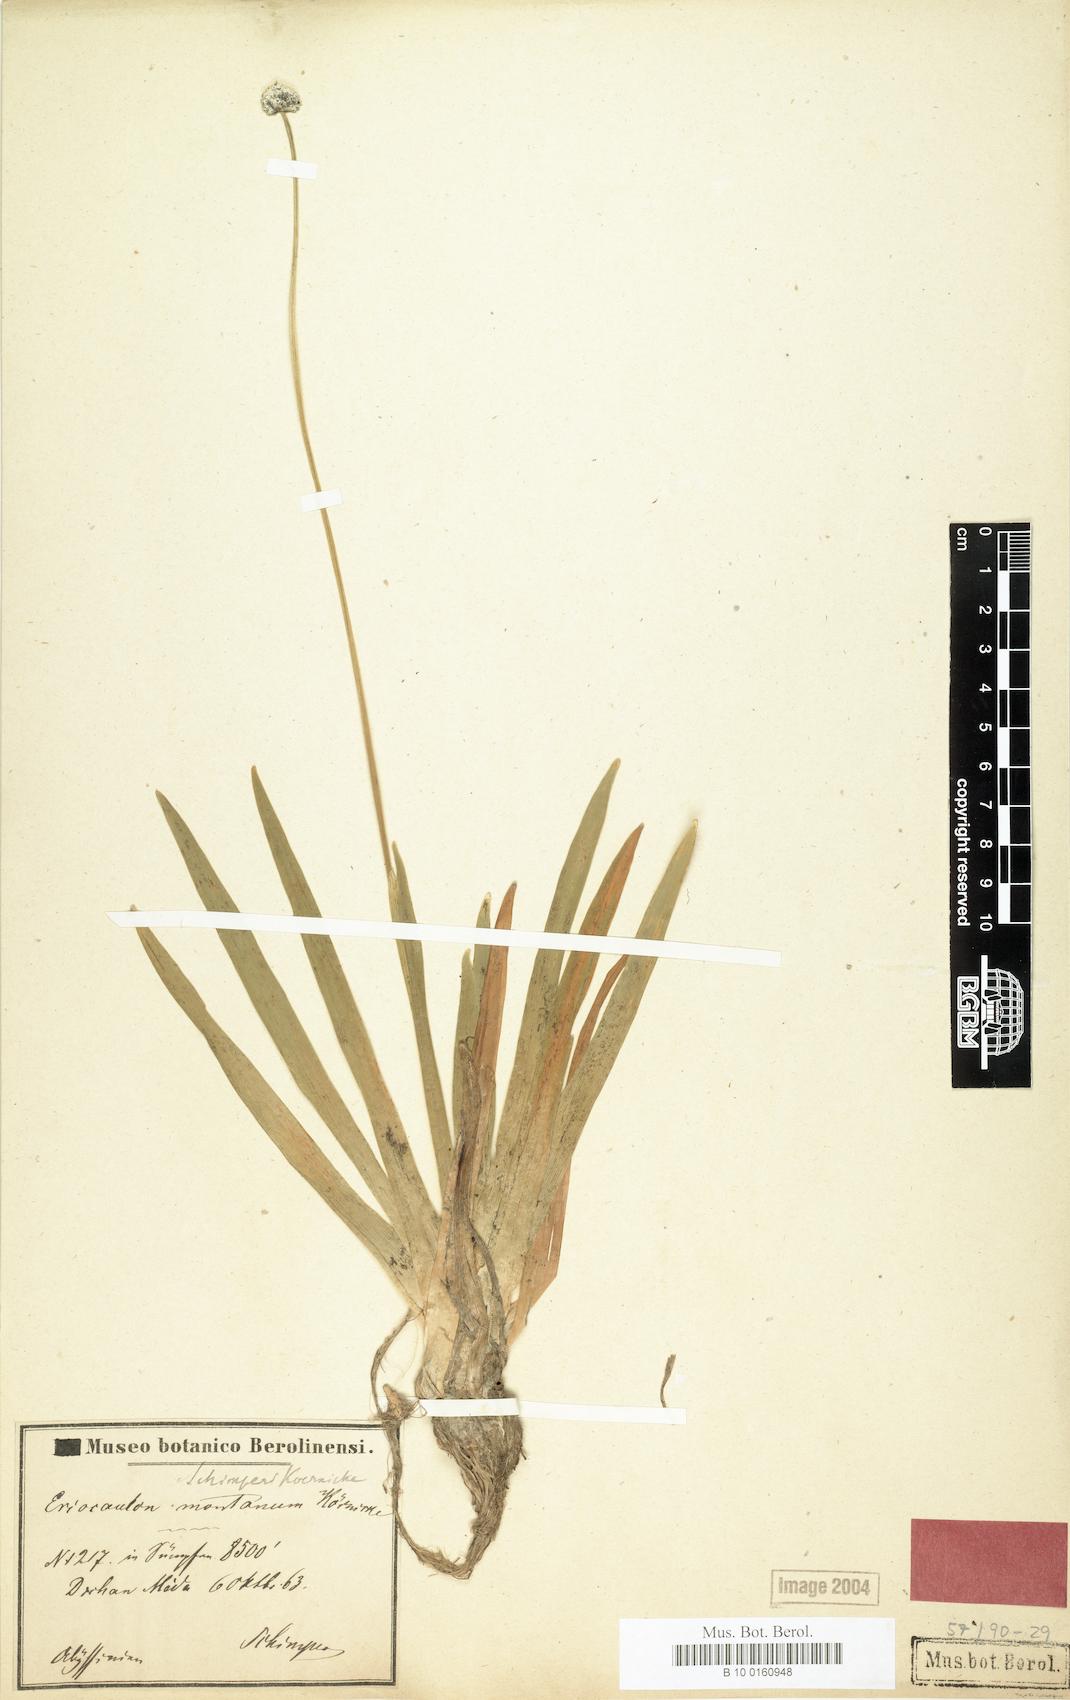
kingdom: Plantae
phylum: Tracheophyta
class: Liliopsida
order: Poales
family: Eriocaulaceae
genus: Eriocaulon
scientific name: Eriocaulon schimperi
